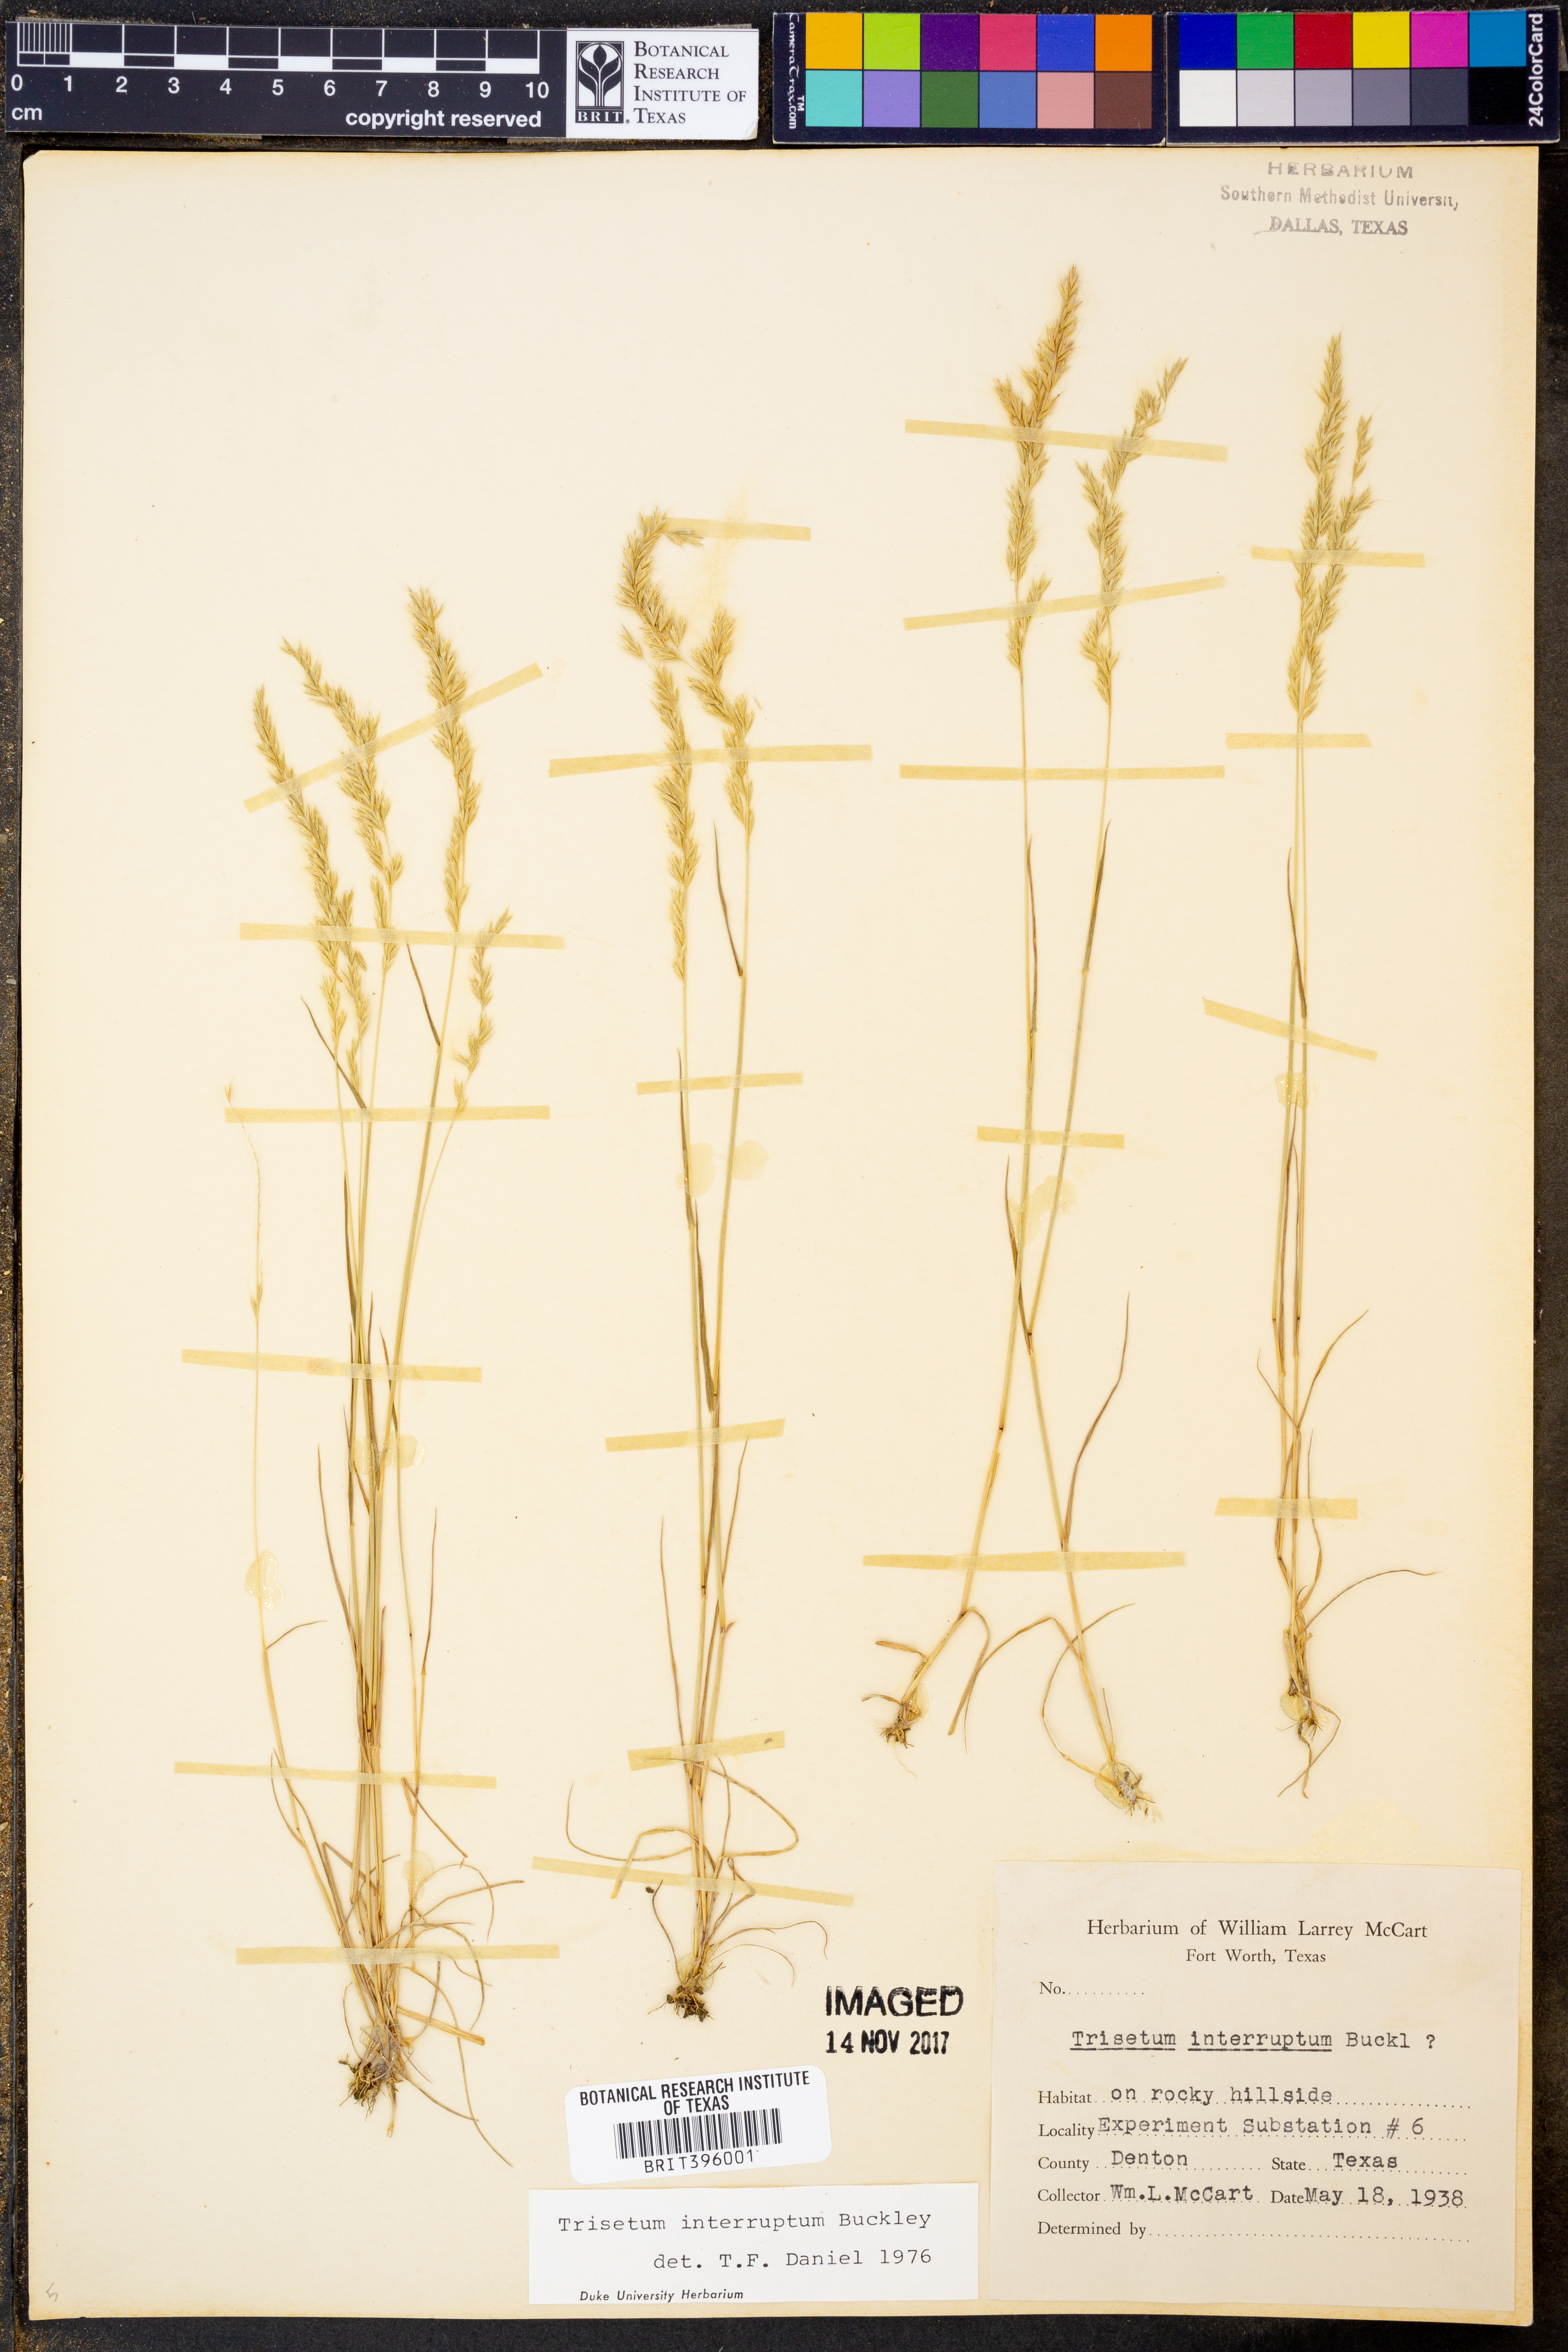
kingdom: Plantae
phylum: Tracheophyta
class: Liliopsida
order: Poales
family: Poaceae
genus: Sphenopholis
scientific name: Sphenopholis interrupta
